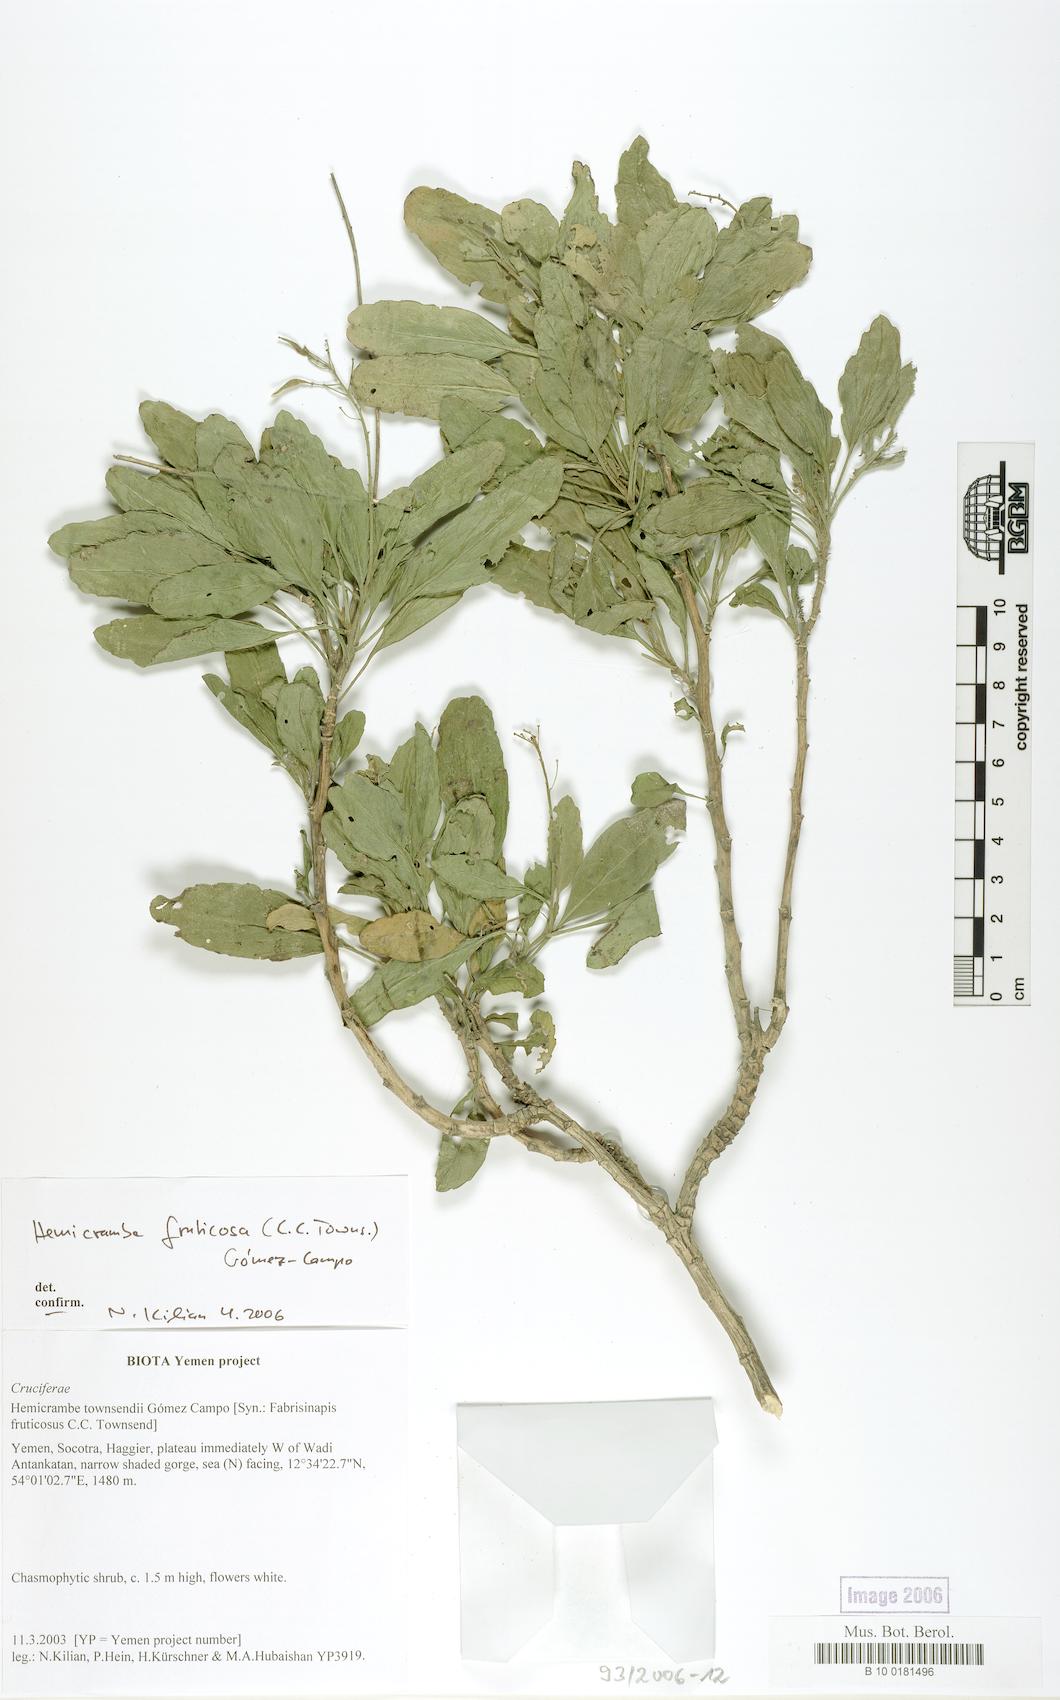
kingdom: Plantae
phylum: Tracheophyta
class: Magnoliopsida
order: Brassicales
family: Brassicaceae
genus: Hemicrambe
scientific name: Hemicrambe fruticosa
